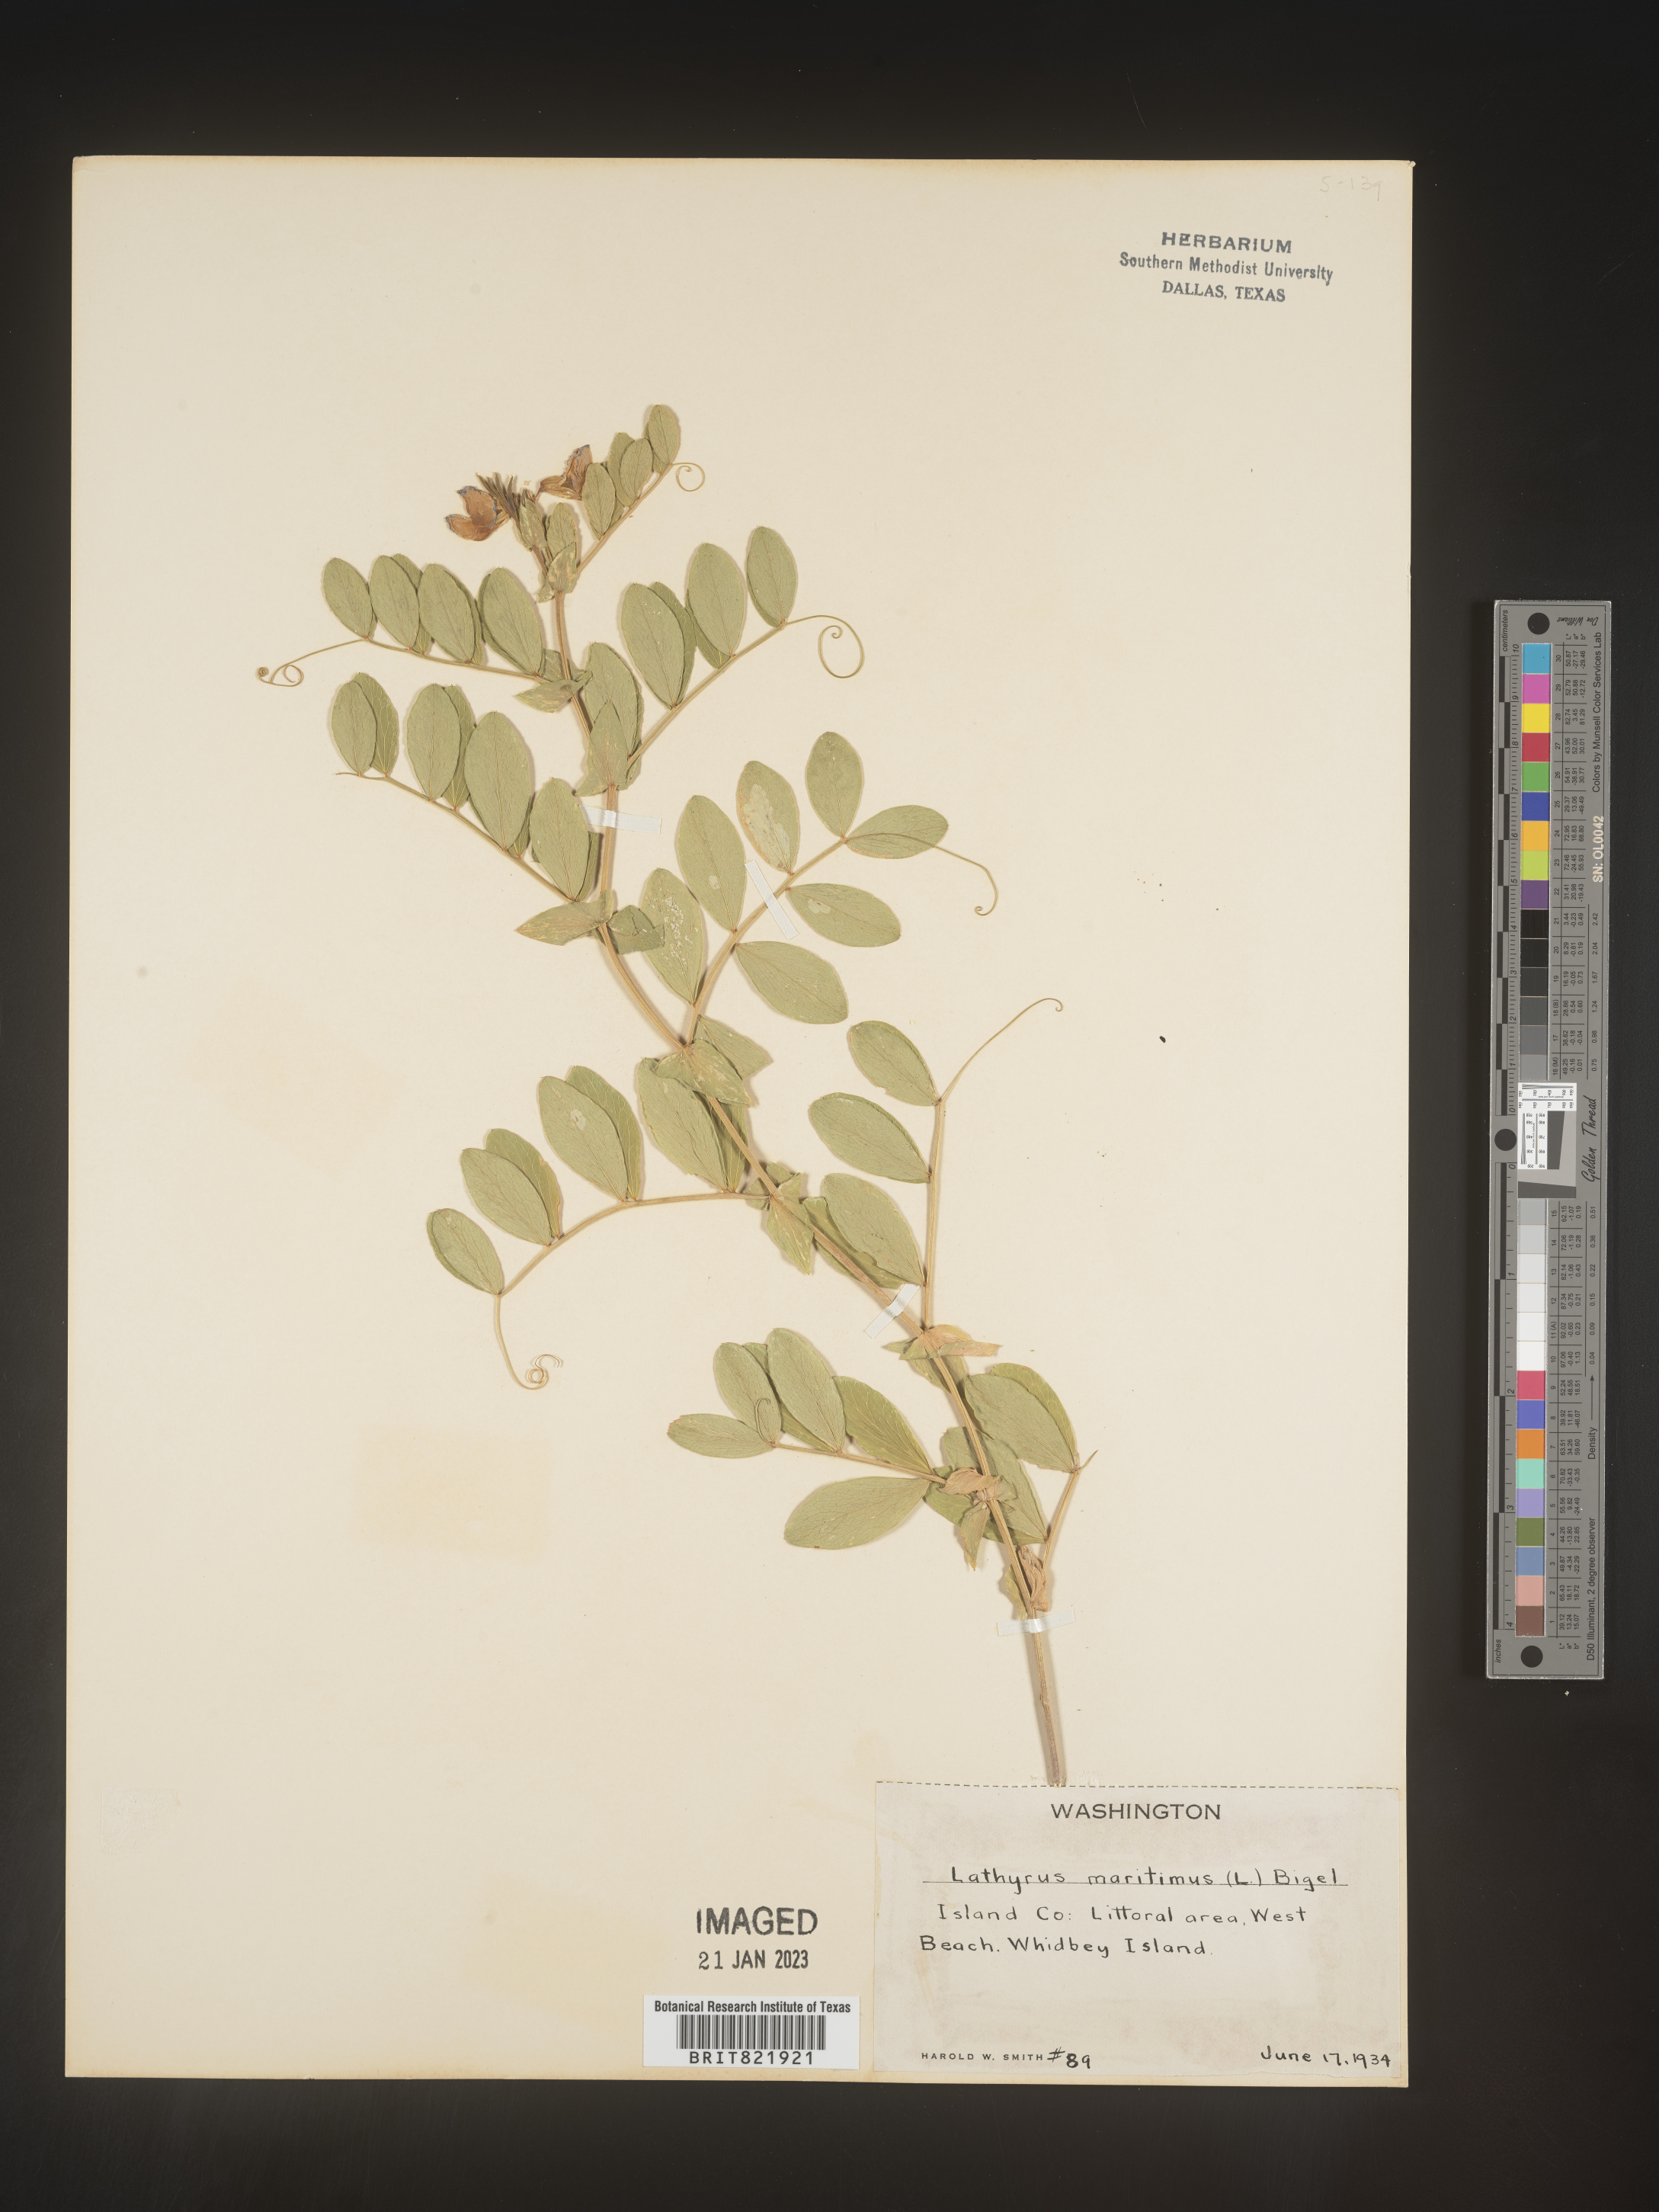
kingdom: Plantae
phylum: Tracheophyta
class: Magnoliopsida
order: Fabales
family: Fabaceae
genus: Lathyrus
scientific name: Lathyrus
